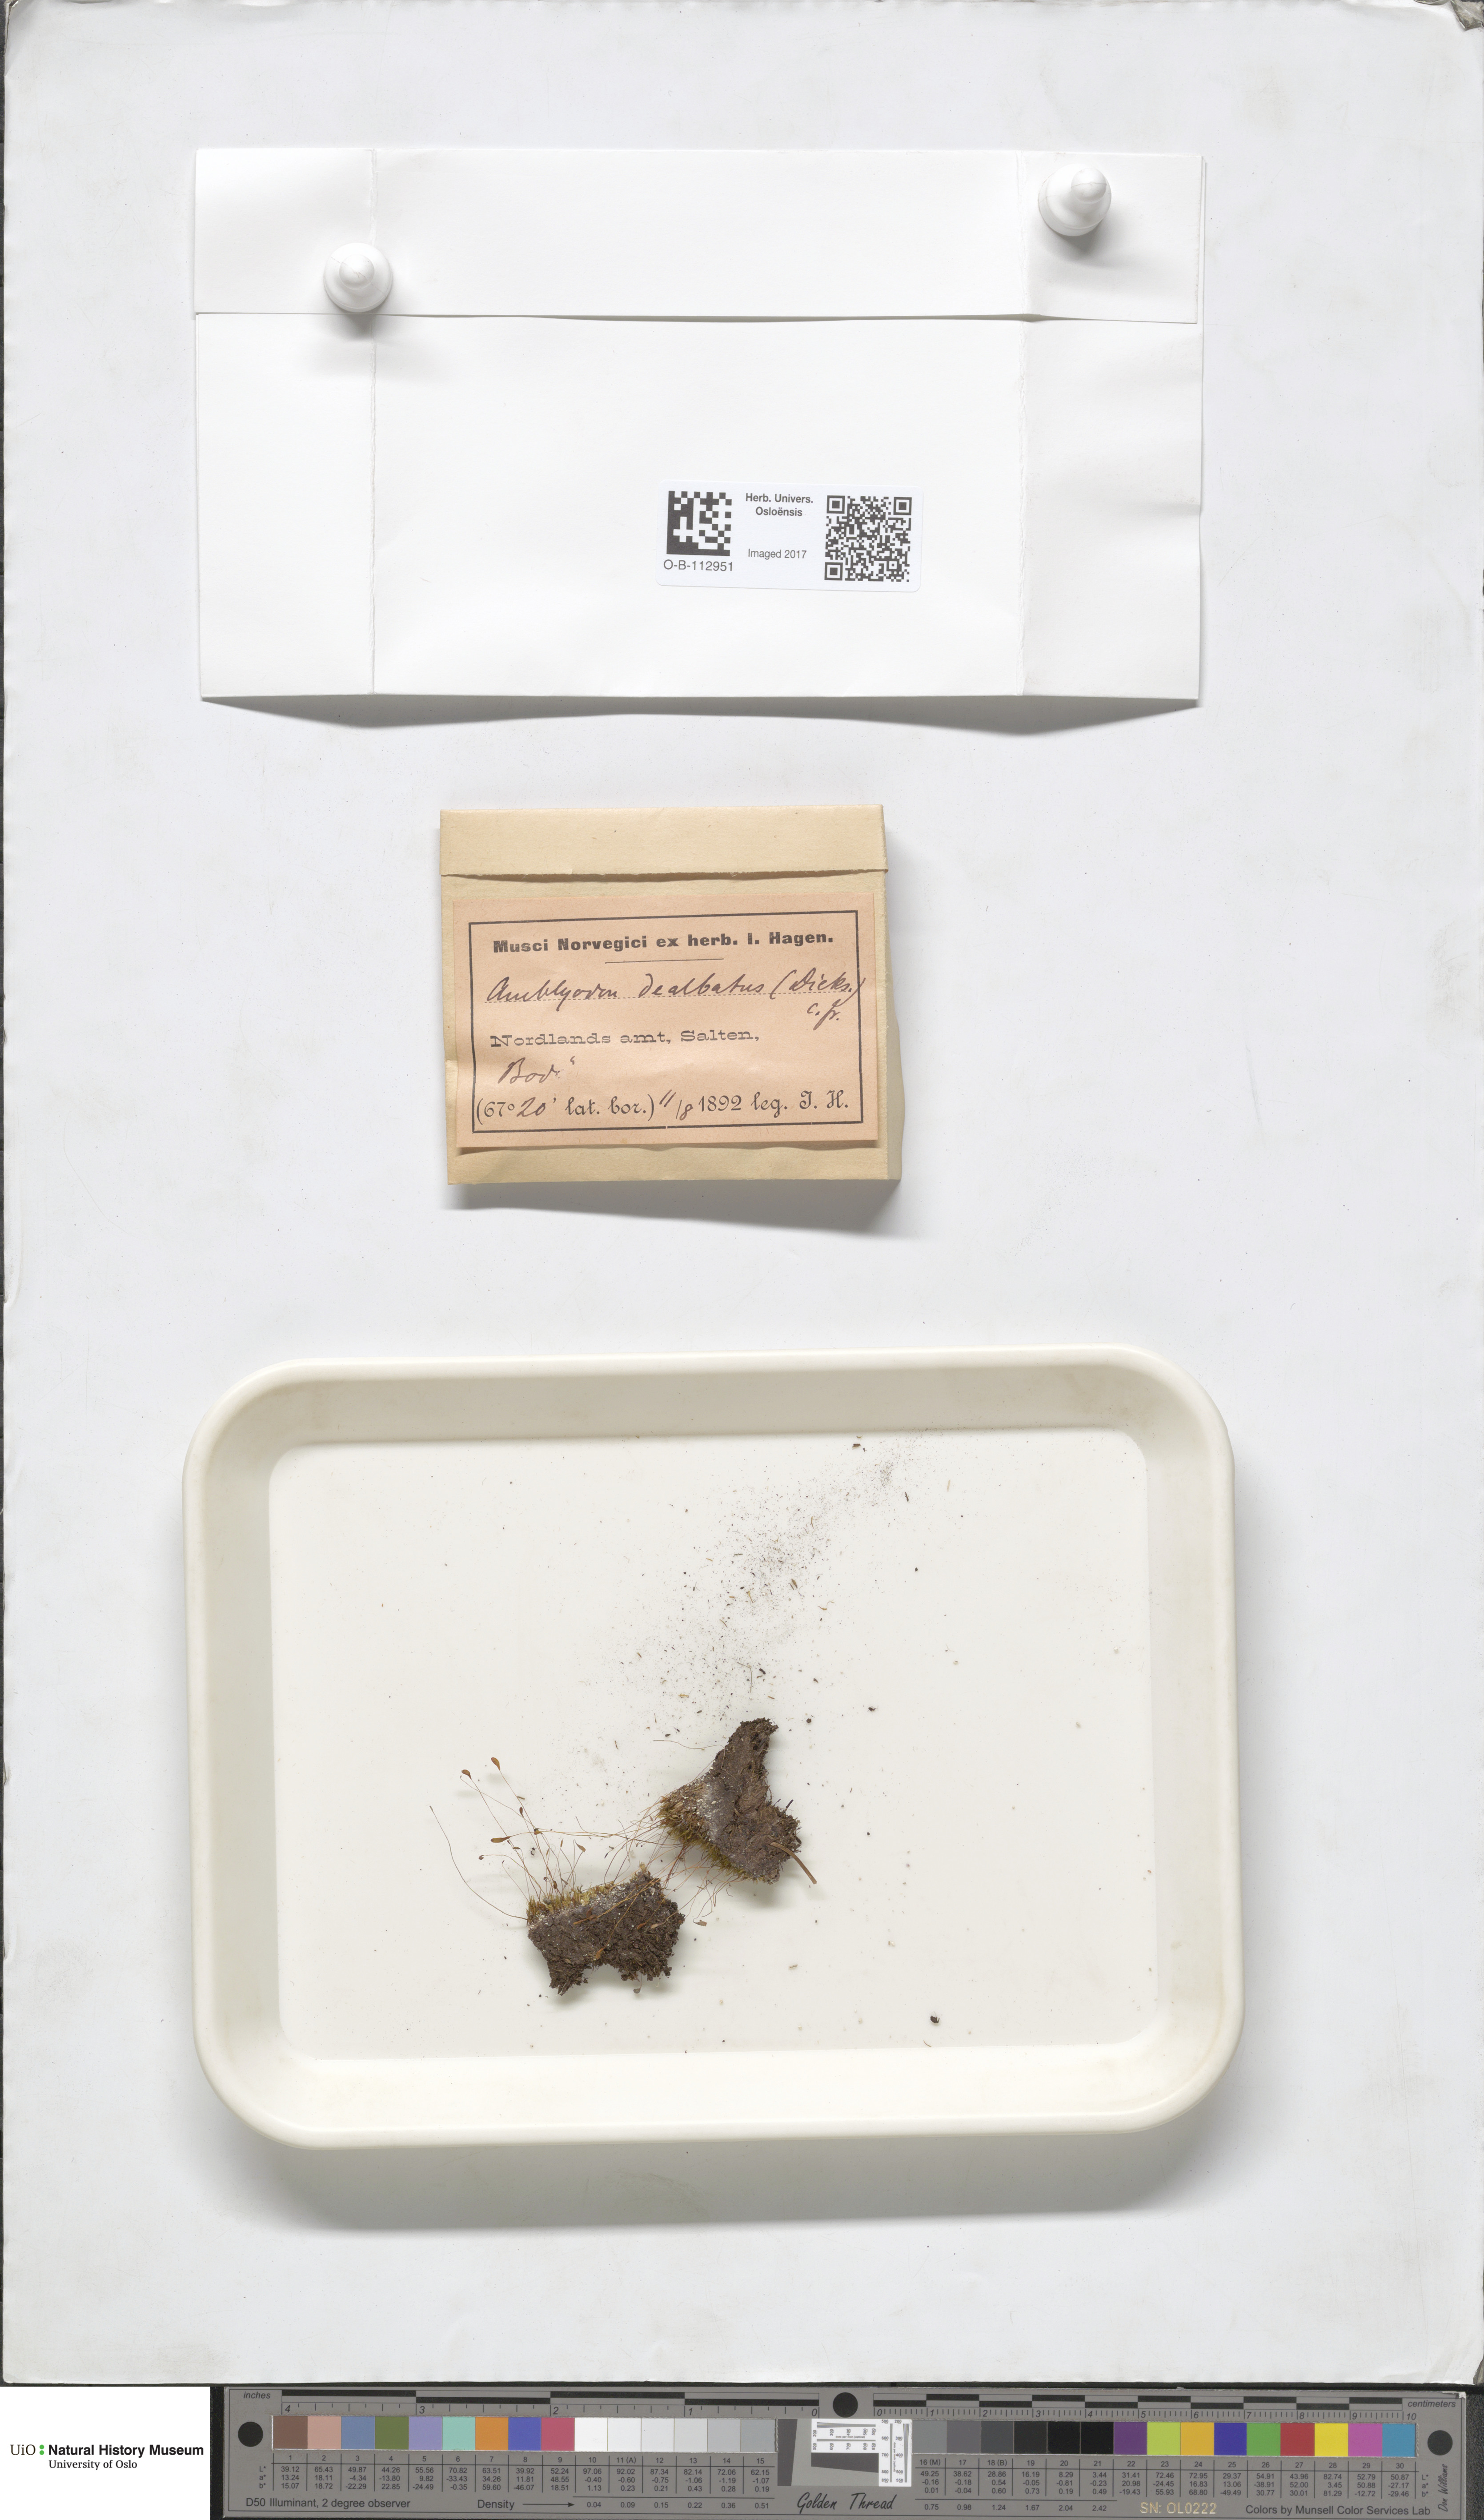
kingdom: Plantae
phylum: Bryophyta
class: Bryopsida
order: Pottiales
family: Pottiaceae
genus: Aloina
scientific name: Aloina
